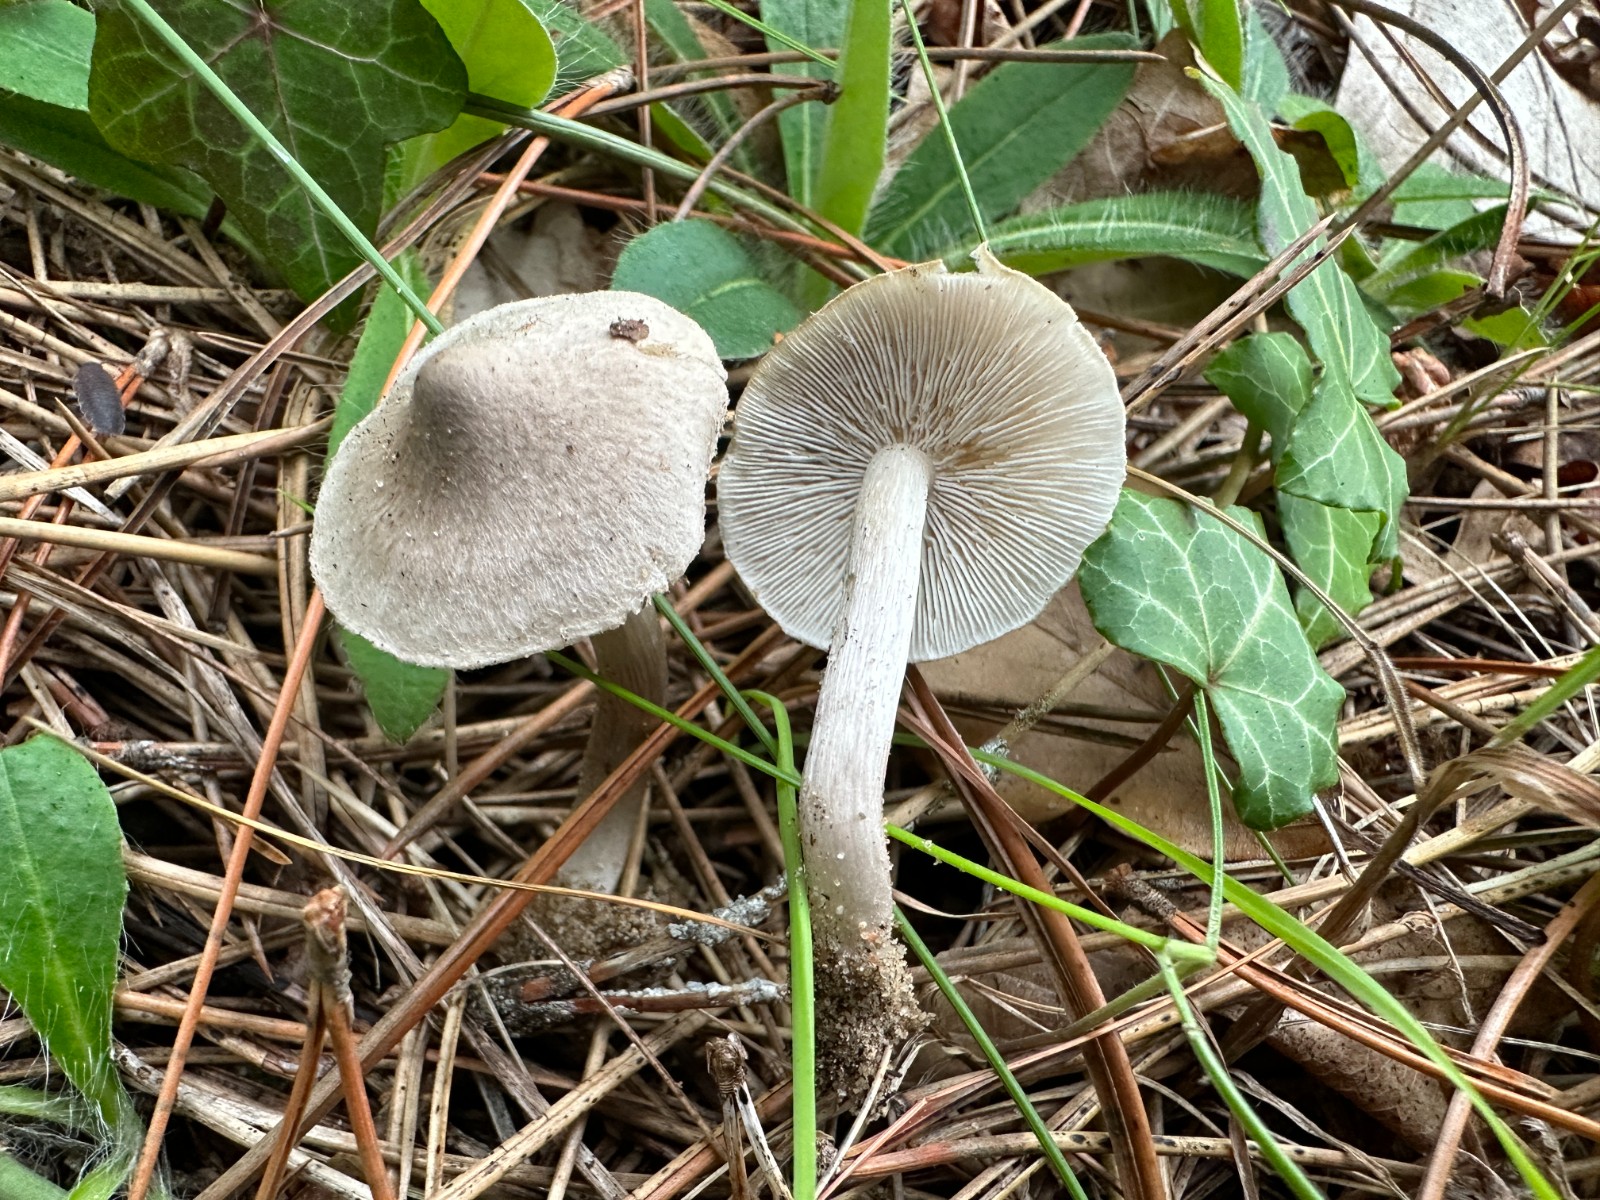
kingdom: Fungi
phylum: Basidiomycota
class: Agaricomycetes
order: Agaricales
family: Tricholomataceae
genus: Tricholoma
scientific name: Tricholoma terreum
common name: jordfarvet ridderhat
